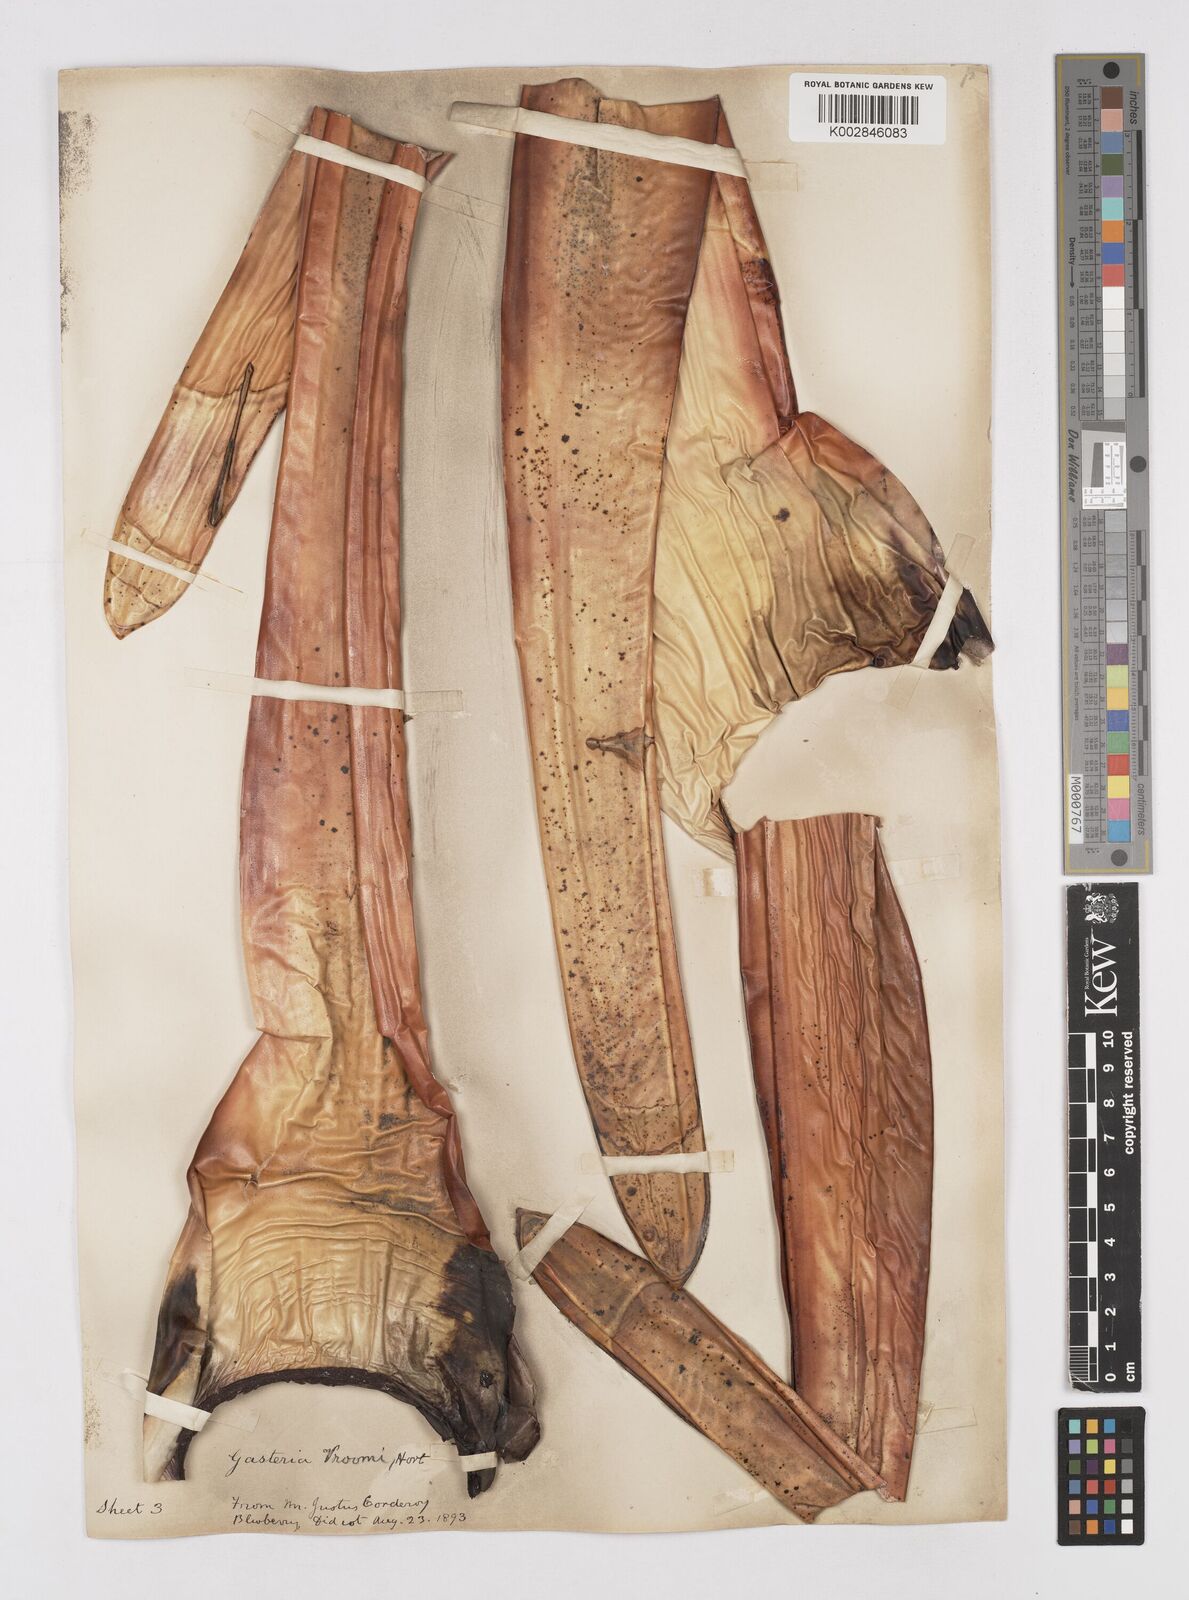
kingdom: Plantae
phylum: Tracheophyta
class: Liliopsida
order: Asparagales
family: Asphodelaceae
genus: Gasteria
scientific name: Gasteria
